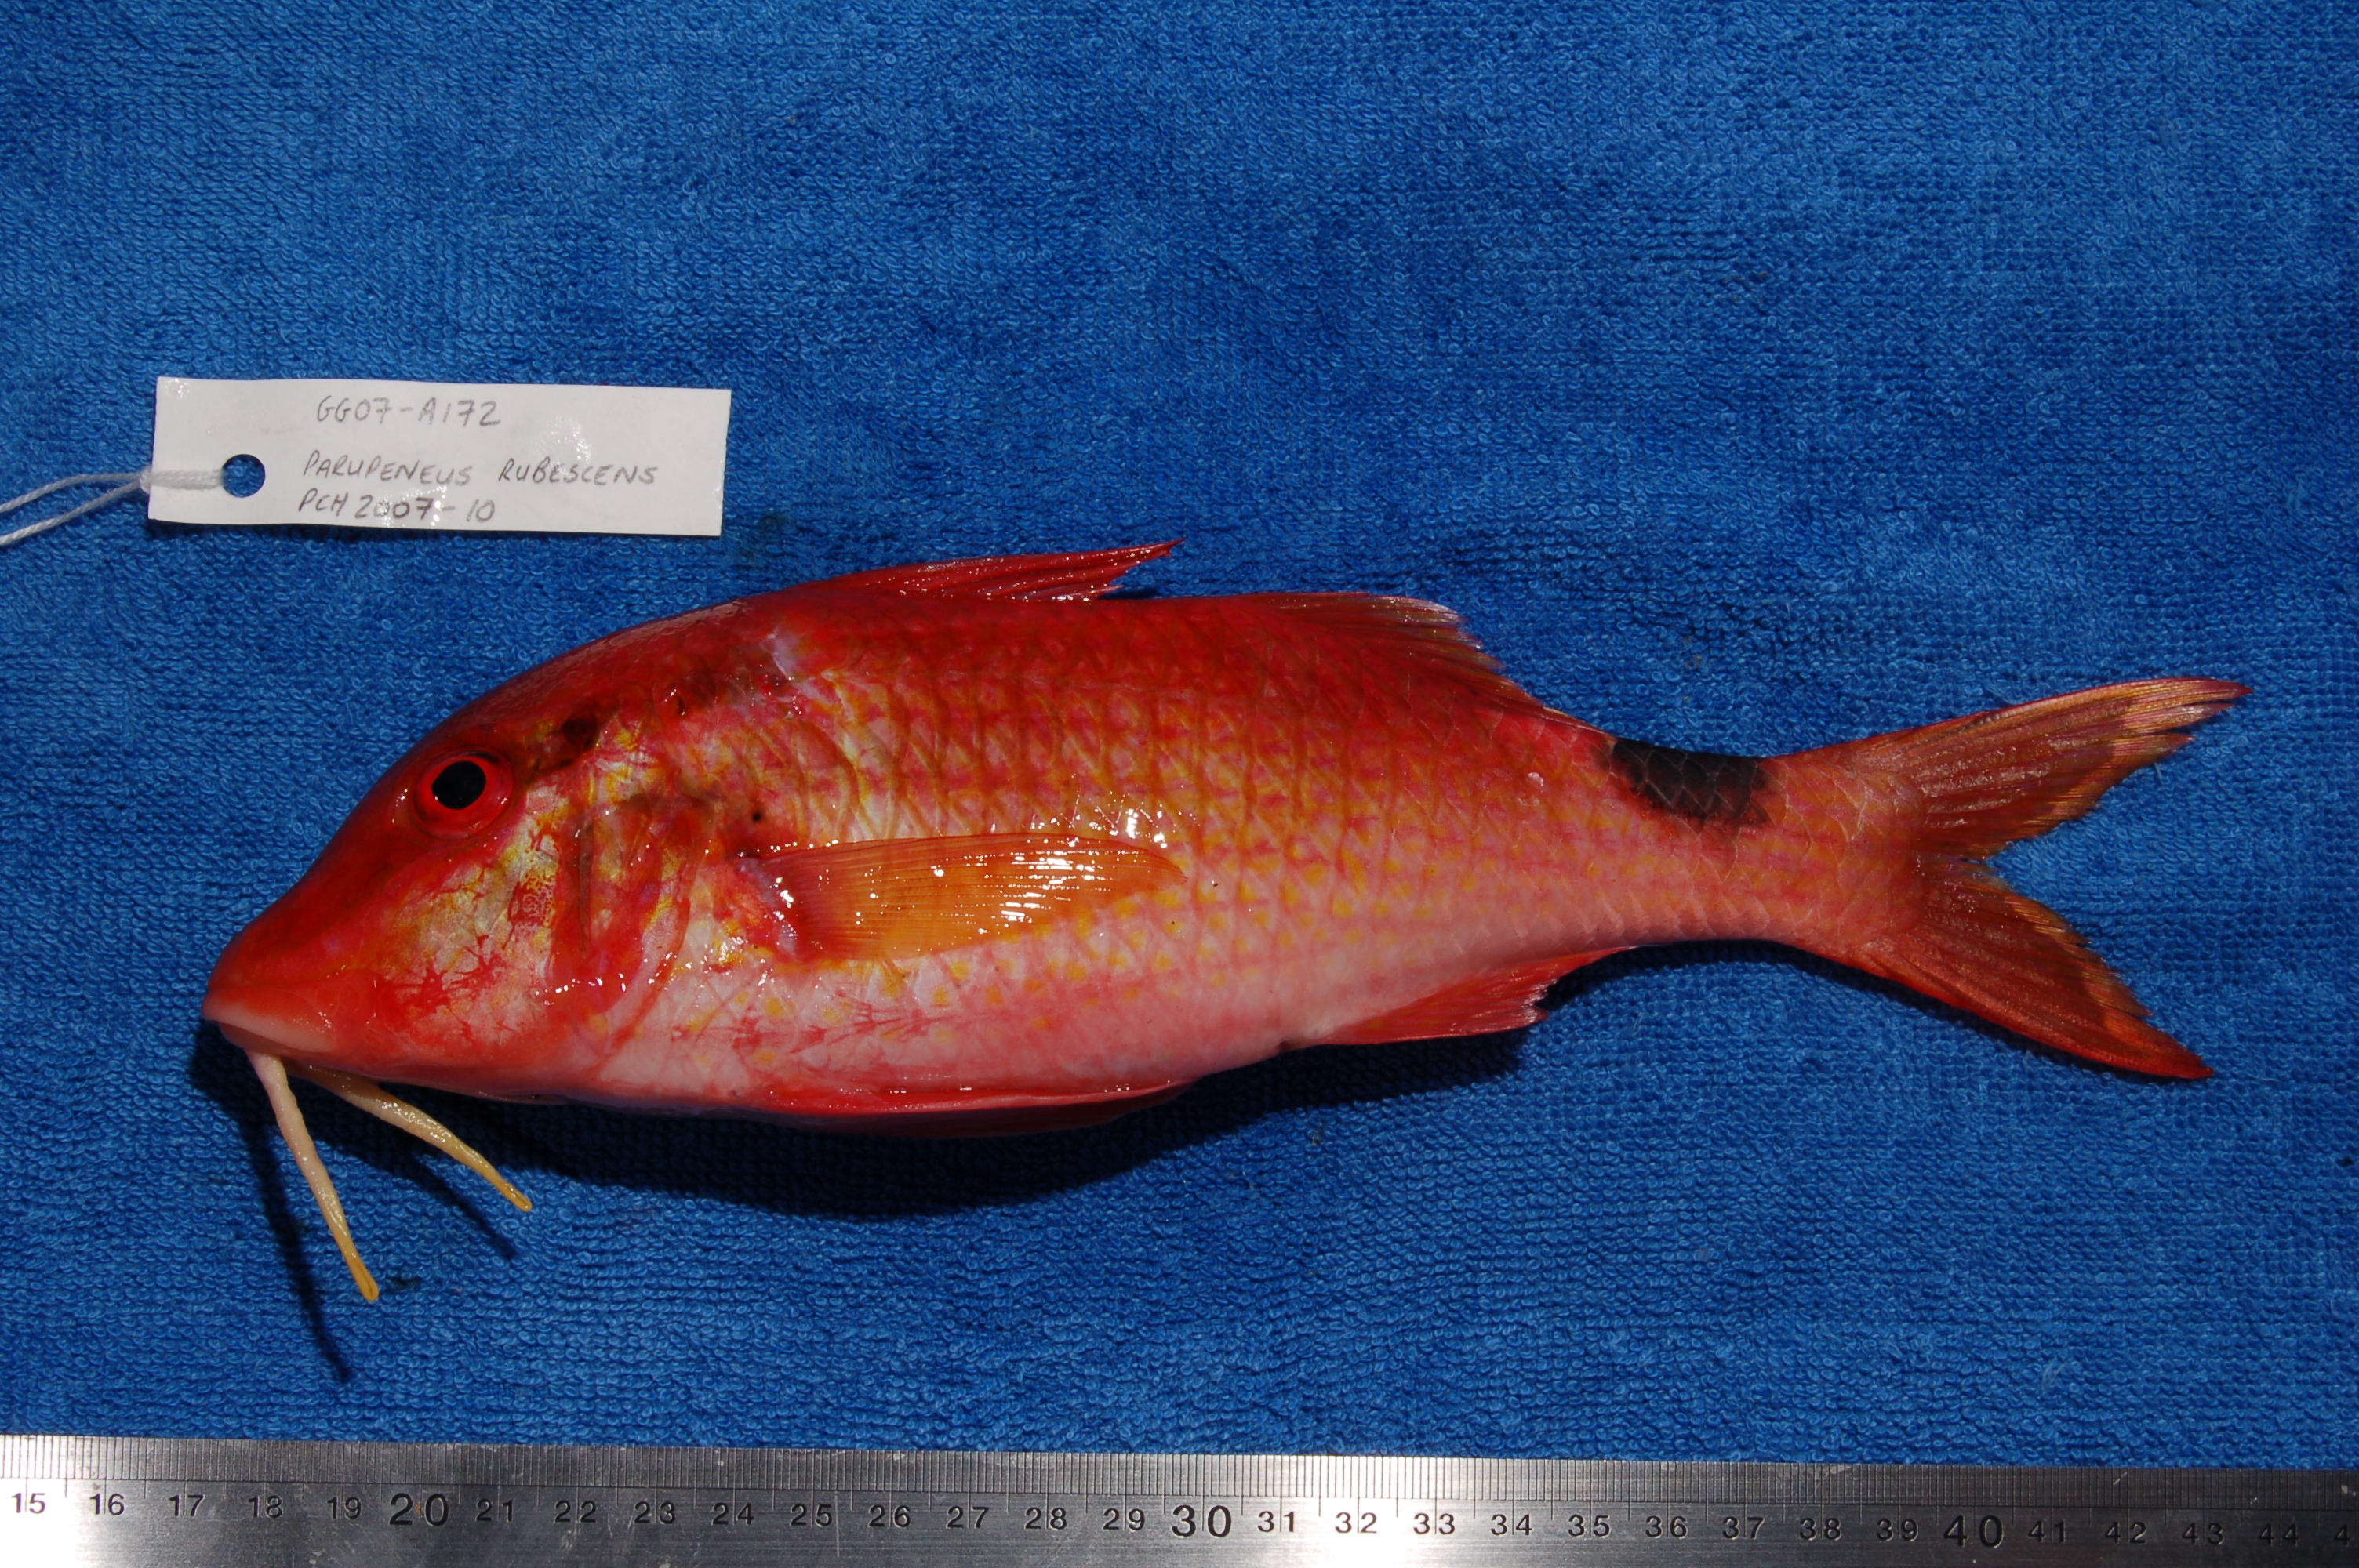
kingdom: Animalia
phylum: Chordata
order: Perciformes
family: Mullidae
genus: Parupeneus
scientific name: Parupeneus rubescens
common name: Rosy goatfish
